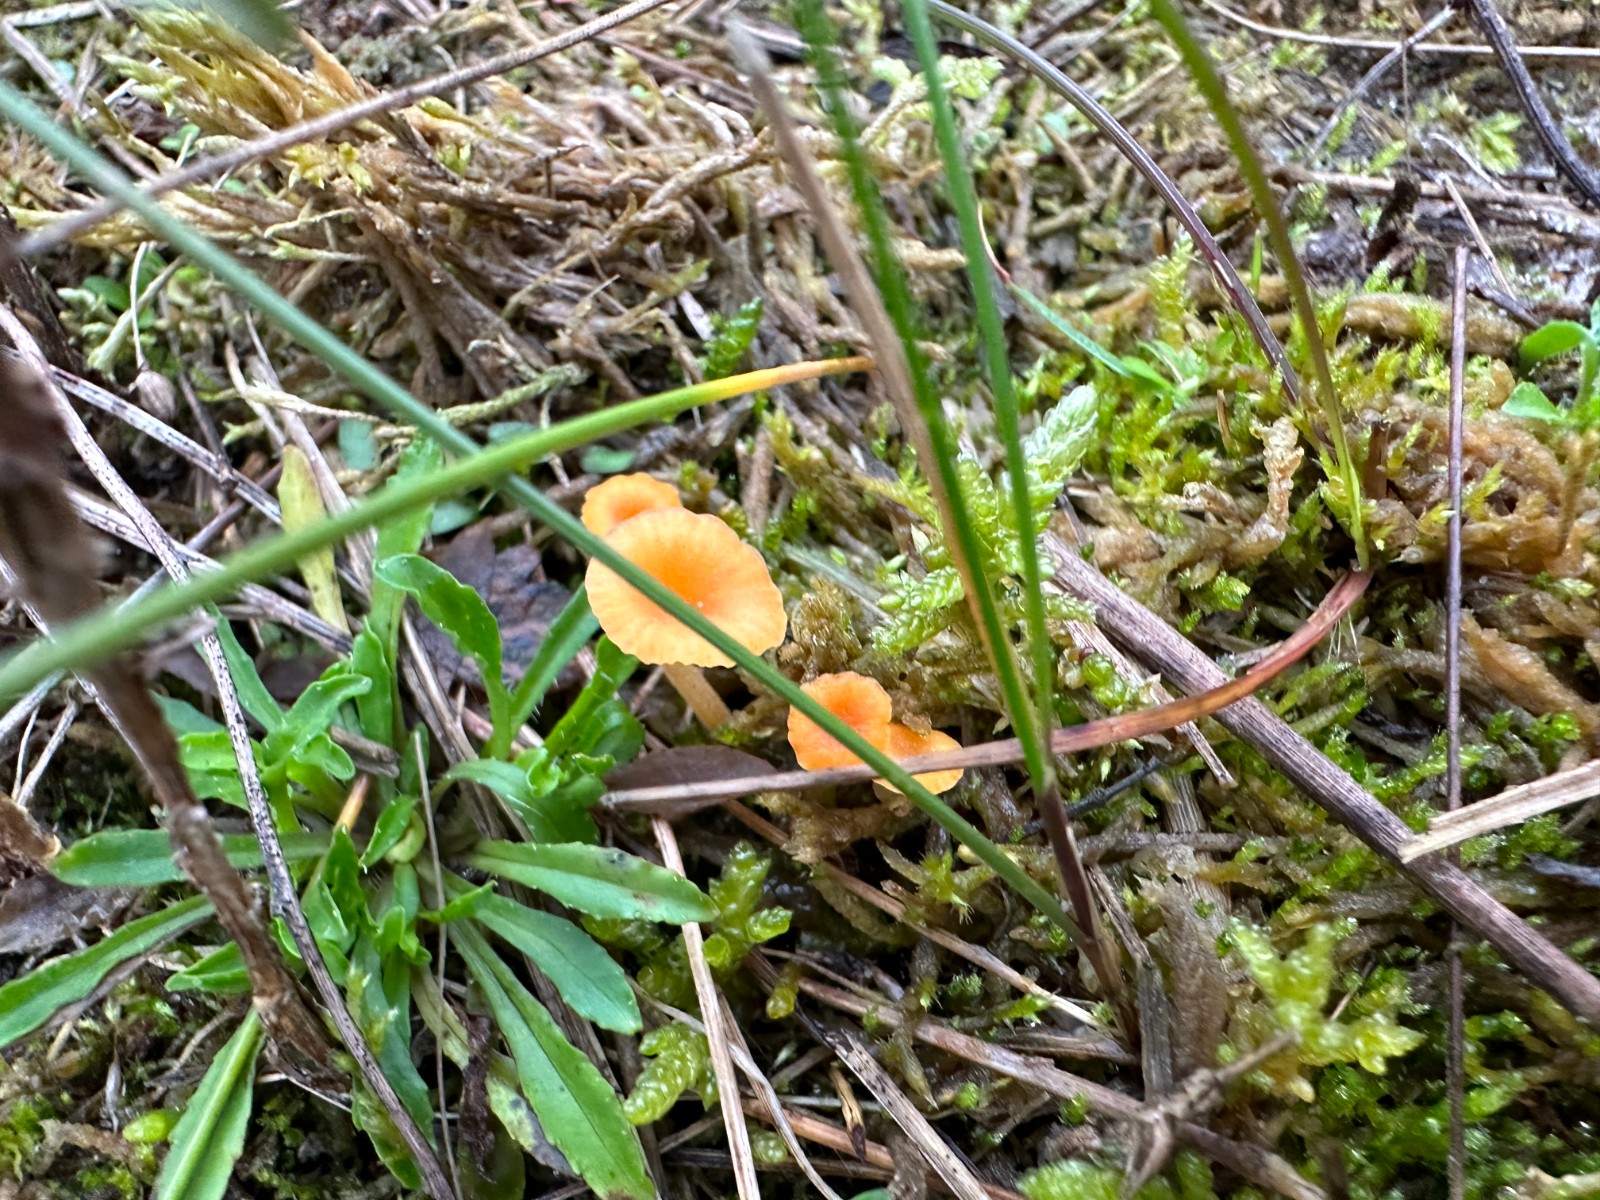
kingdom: Fungi
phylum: Basidiomycota
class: Agaricomycetes
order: Hymenochaetales
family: Rickenellaceae
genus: Rickenella
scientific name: Rickenella fibula
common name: orange mosnavlehat
